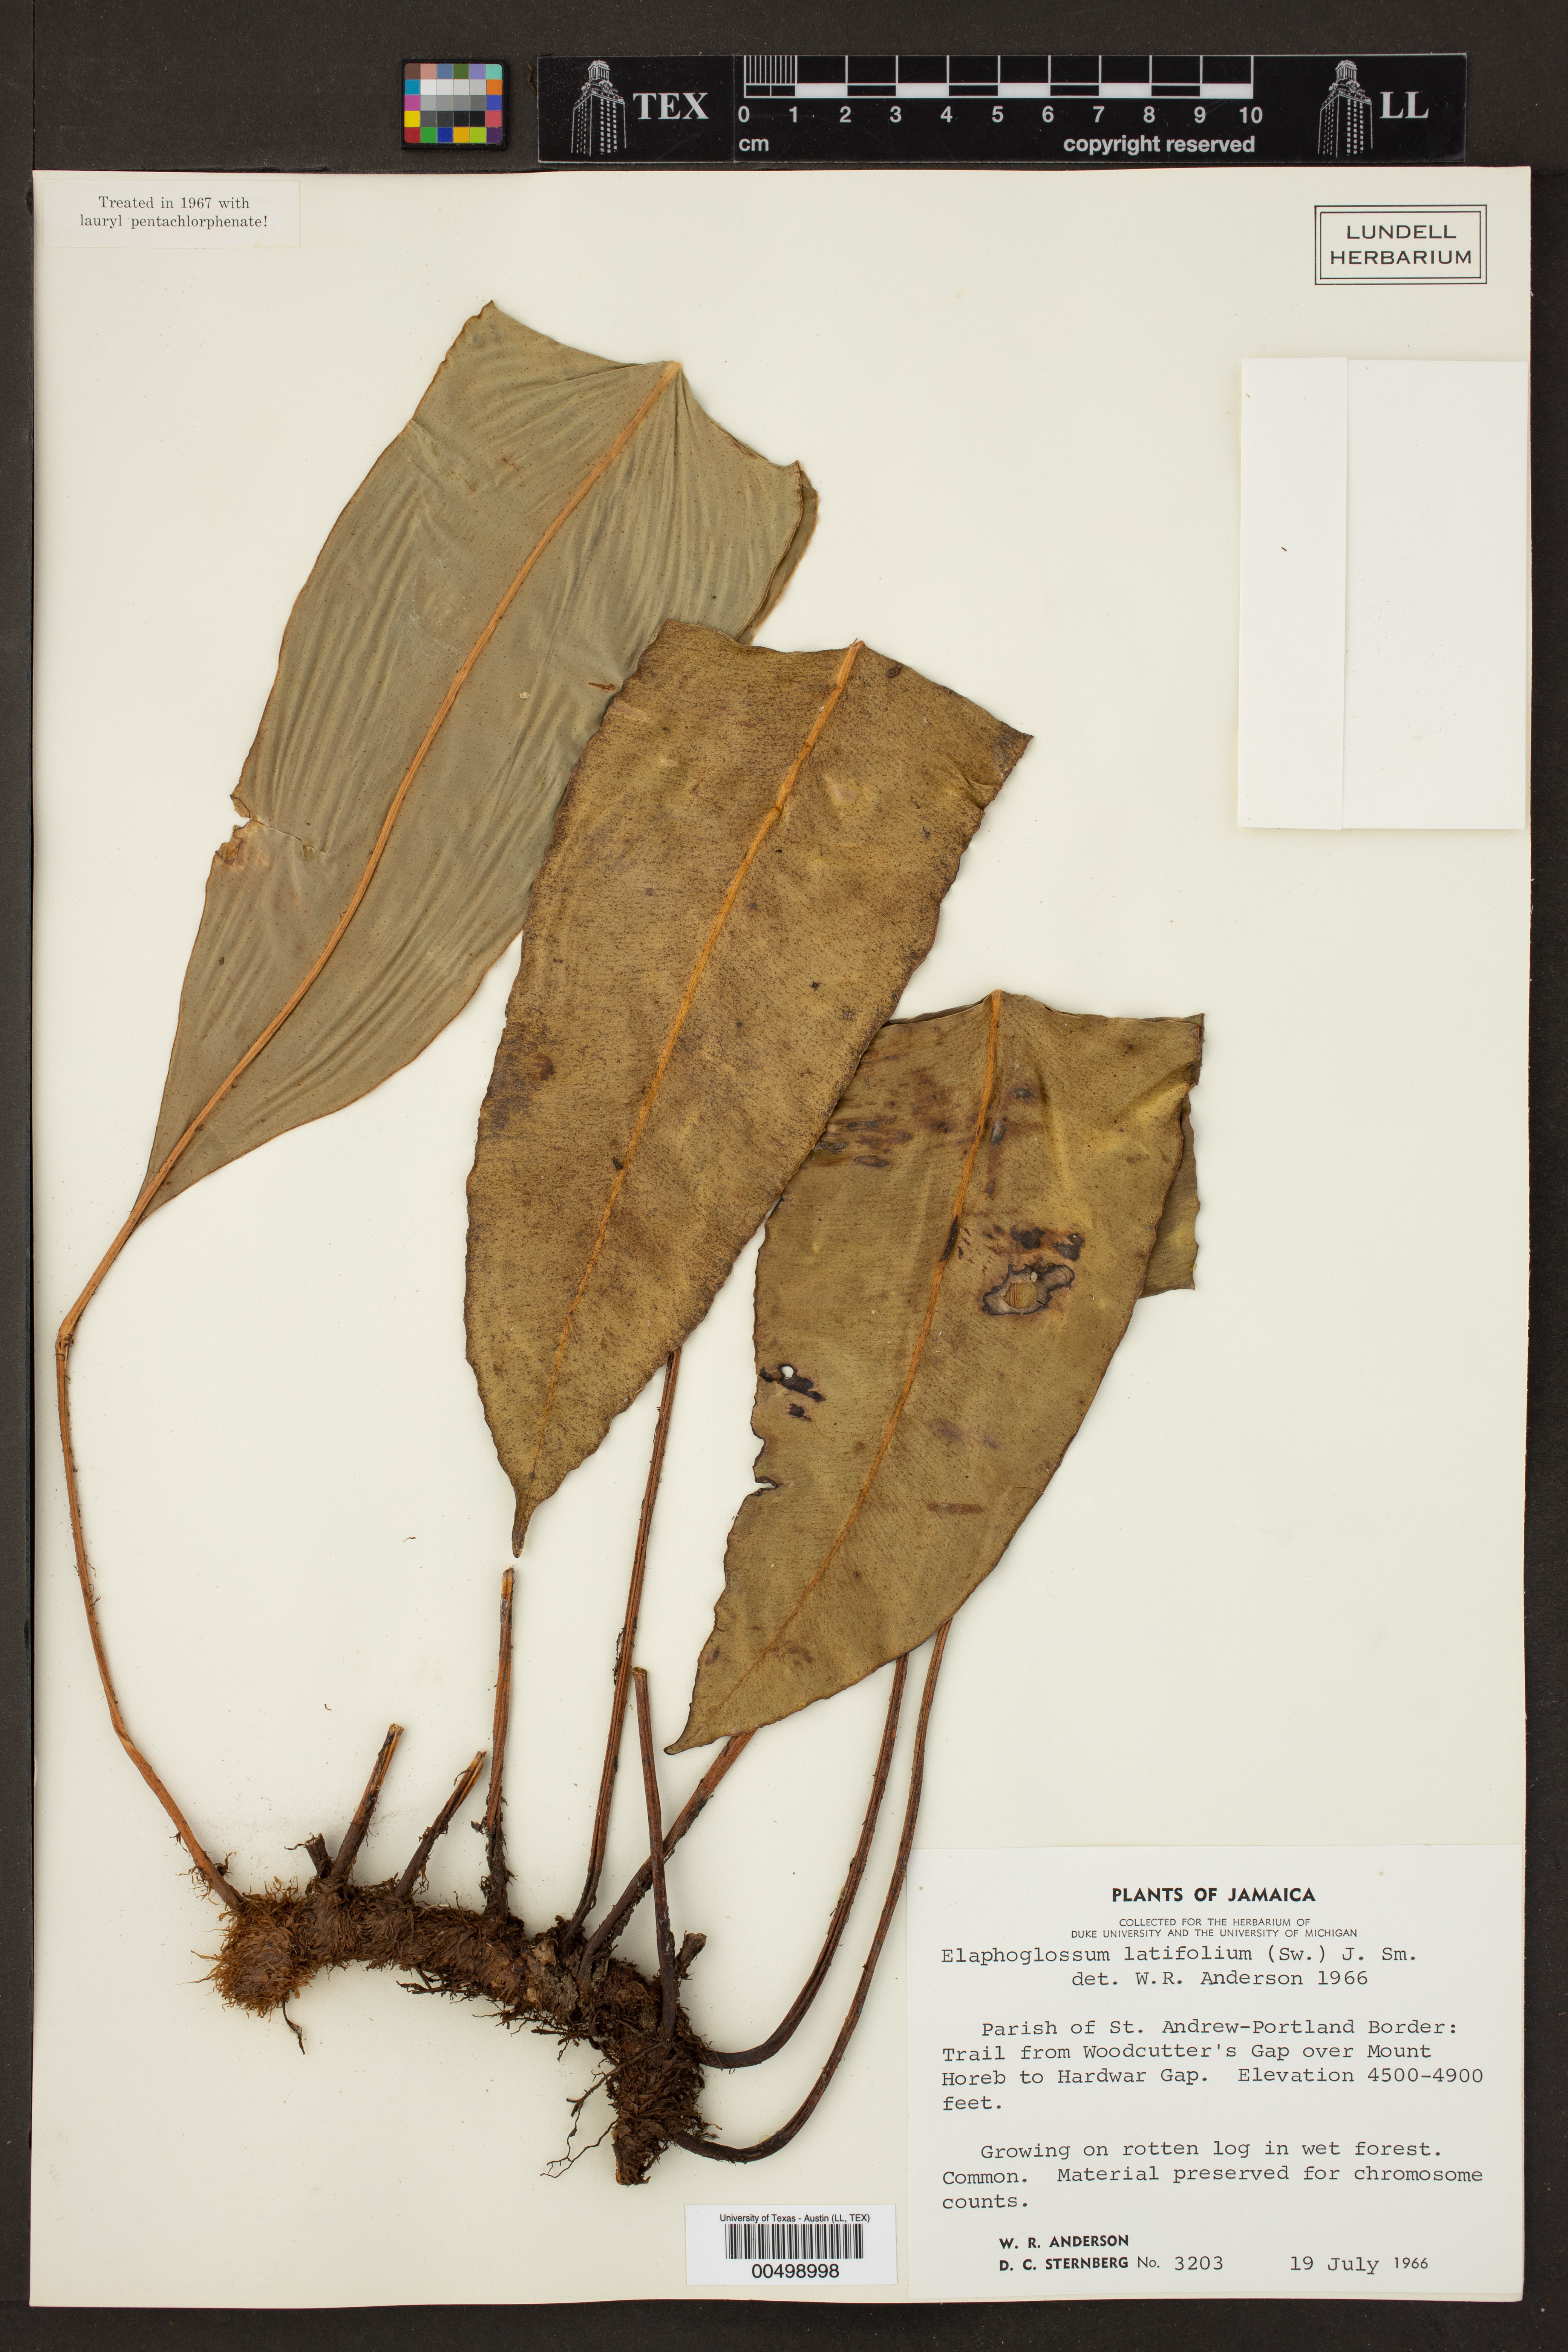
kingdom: Plantae
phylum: Tracheophyta
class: Polypodiopsida
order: Polypodiales
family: Dryopteridaceae
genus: Elaphoglossum
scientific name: Elaphoglossum latifolium
